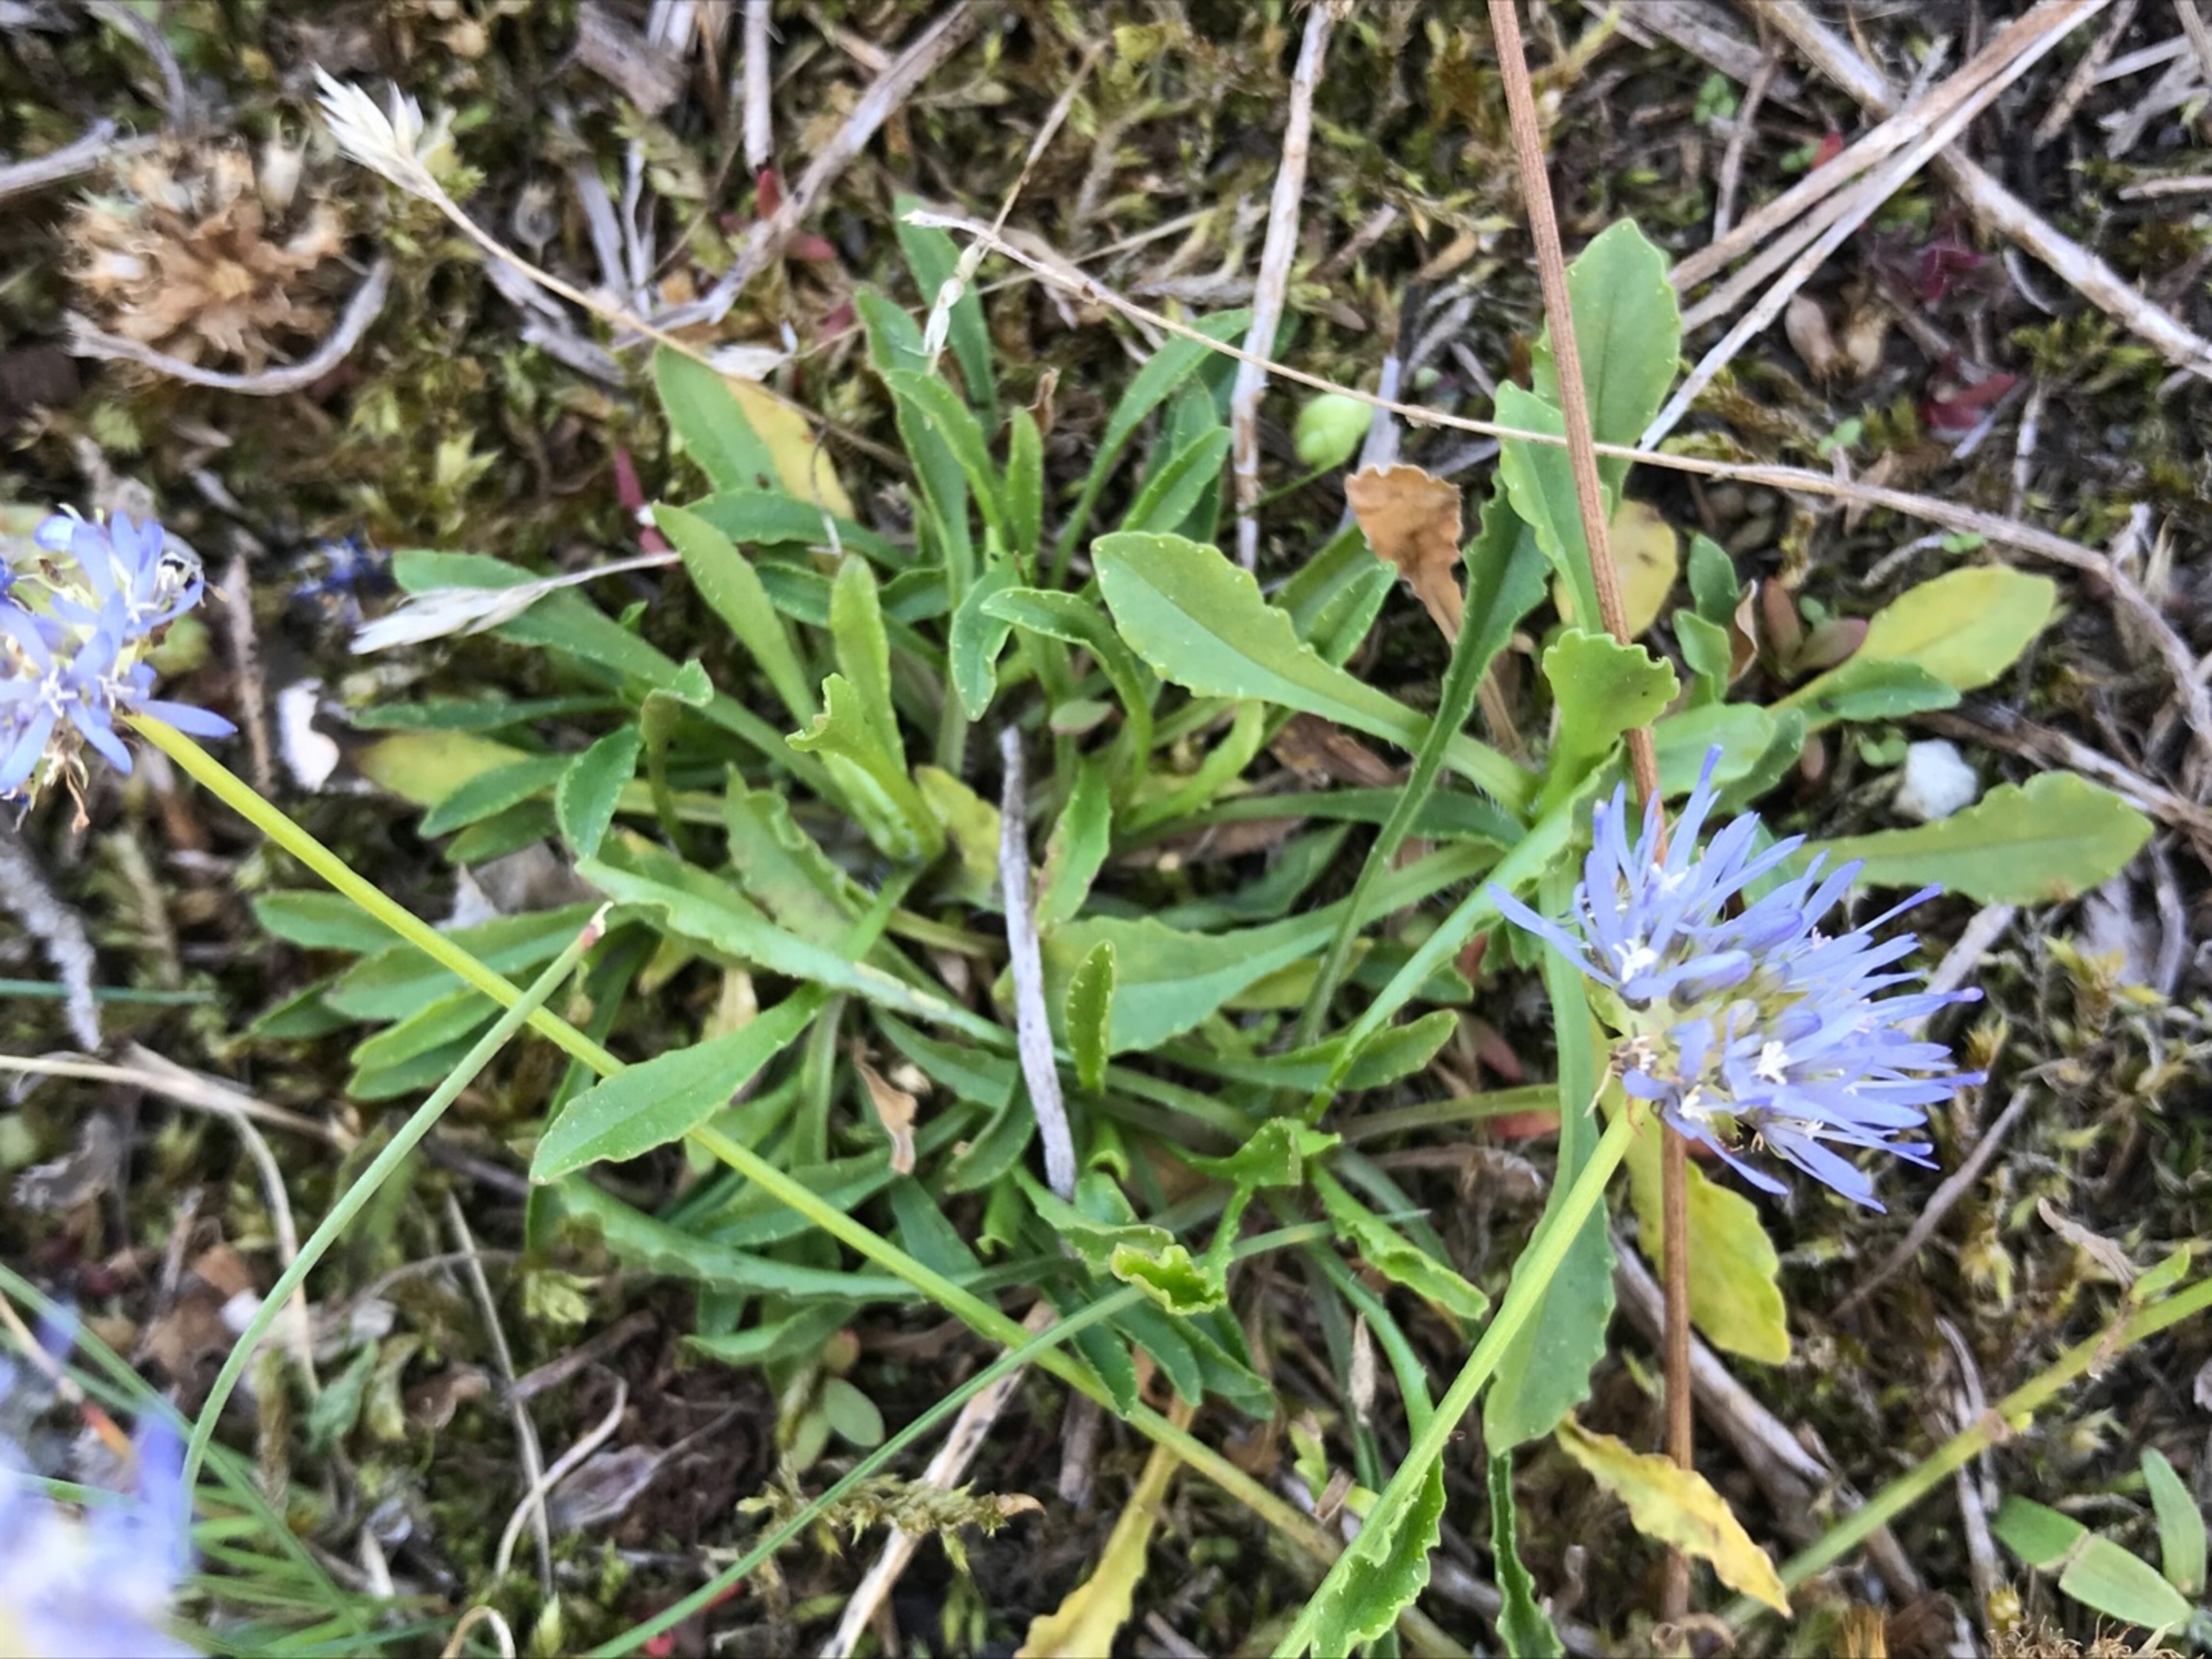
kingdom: Plantae
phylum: Tracheophyta
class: Magnoliopsida
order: Asterales
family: Campanulaceae
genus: Jasione
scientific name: Jasione montana
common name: Blåmunke
